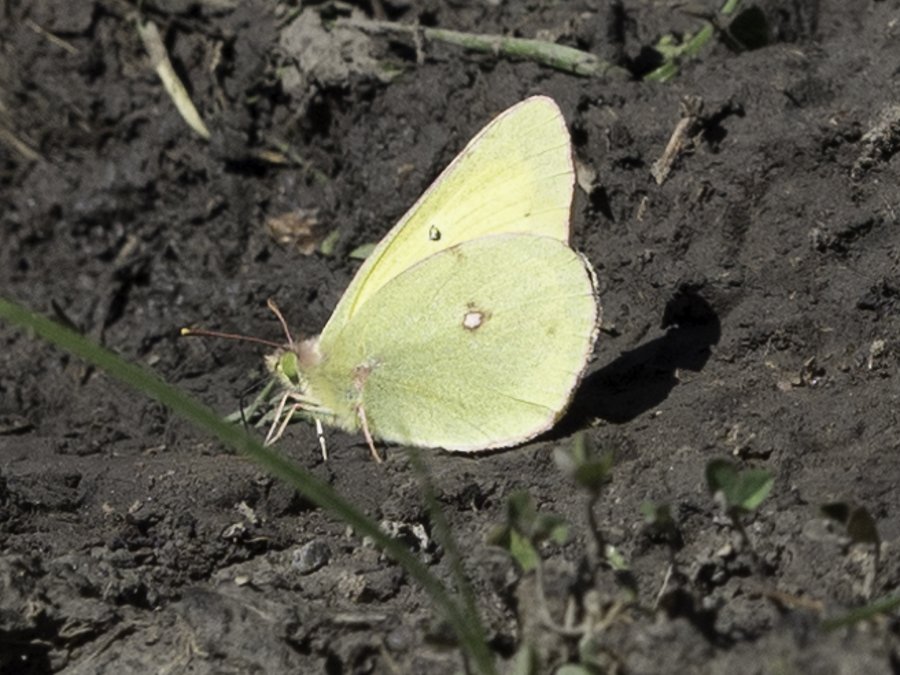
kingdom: Animalia
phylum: Arthropoda
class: Insecta
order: Lepidoptera
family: Pieridae
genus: Colias
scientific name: Colias philodice
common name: Clouded Sulphur
